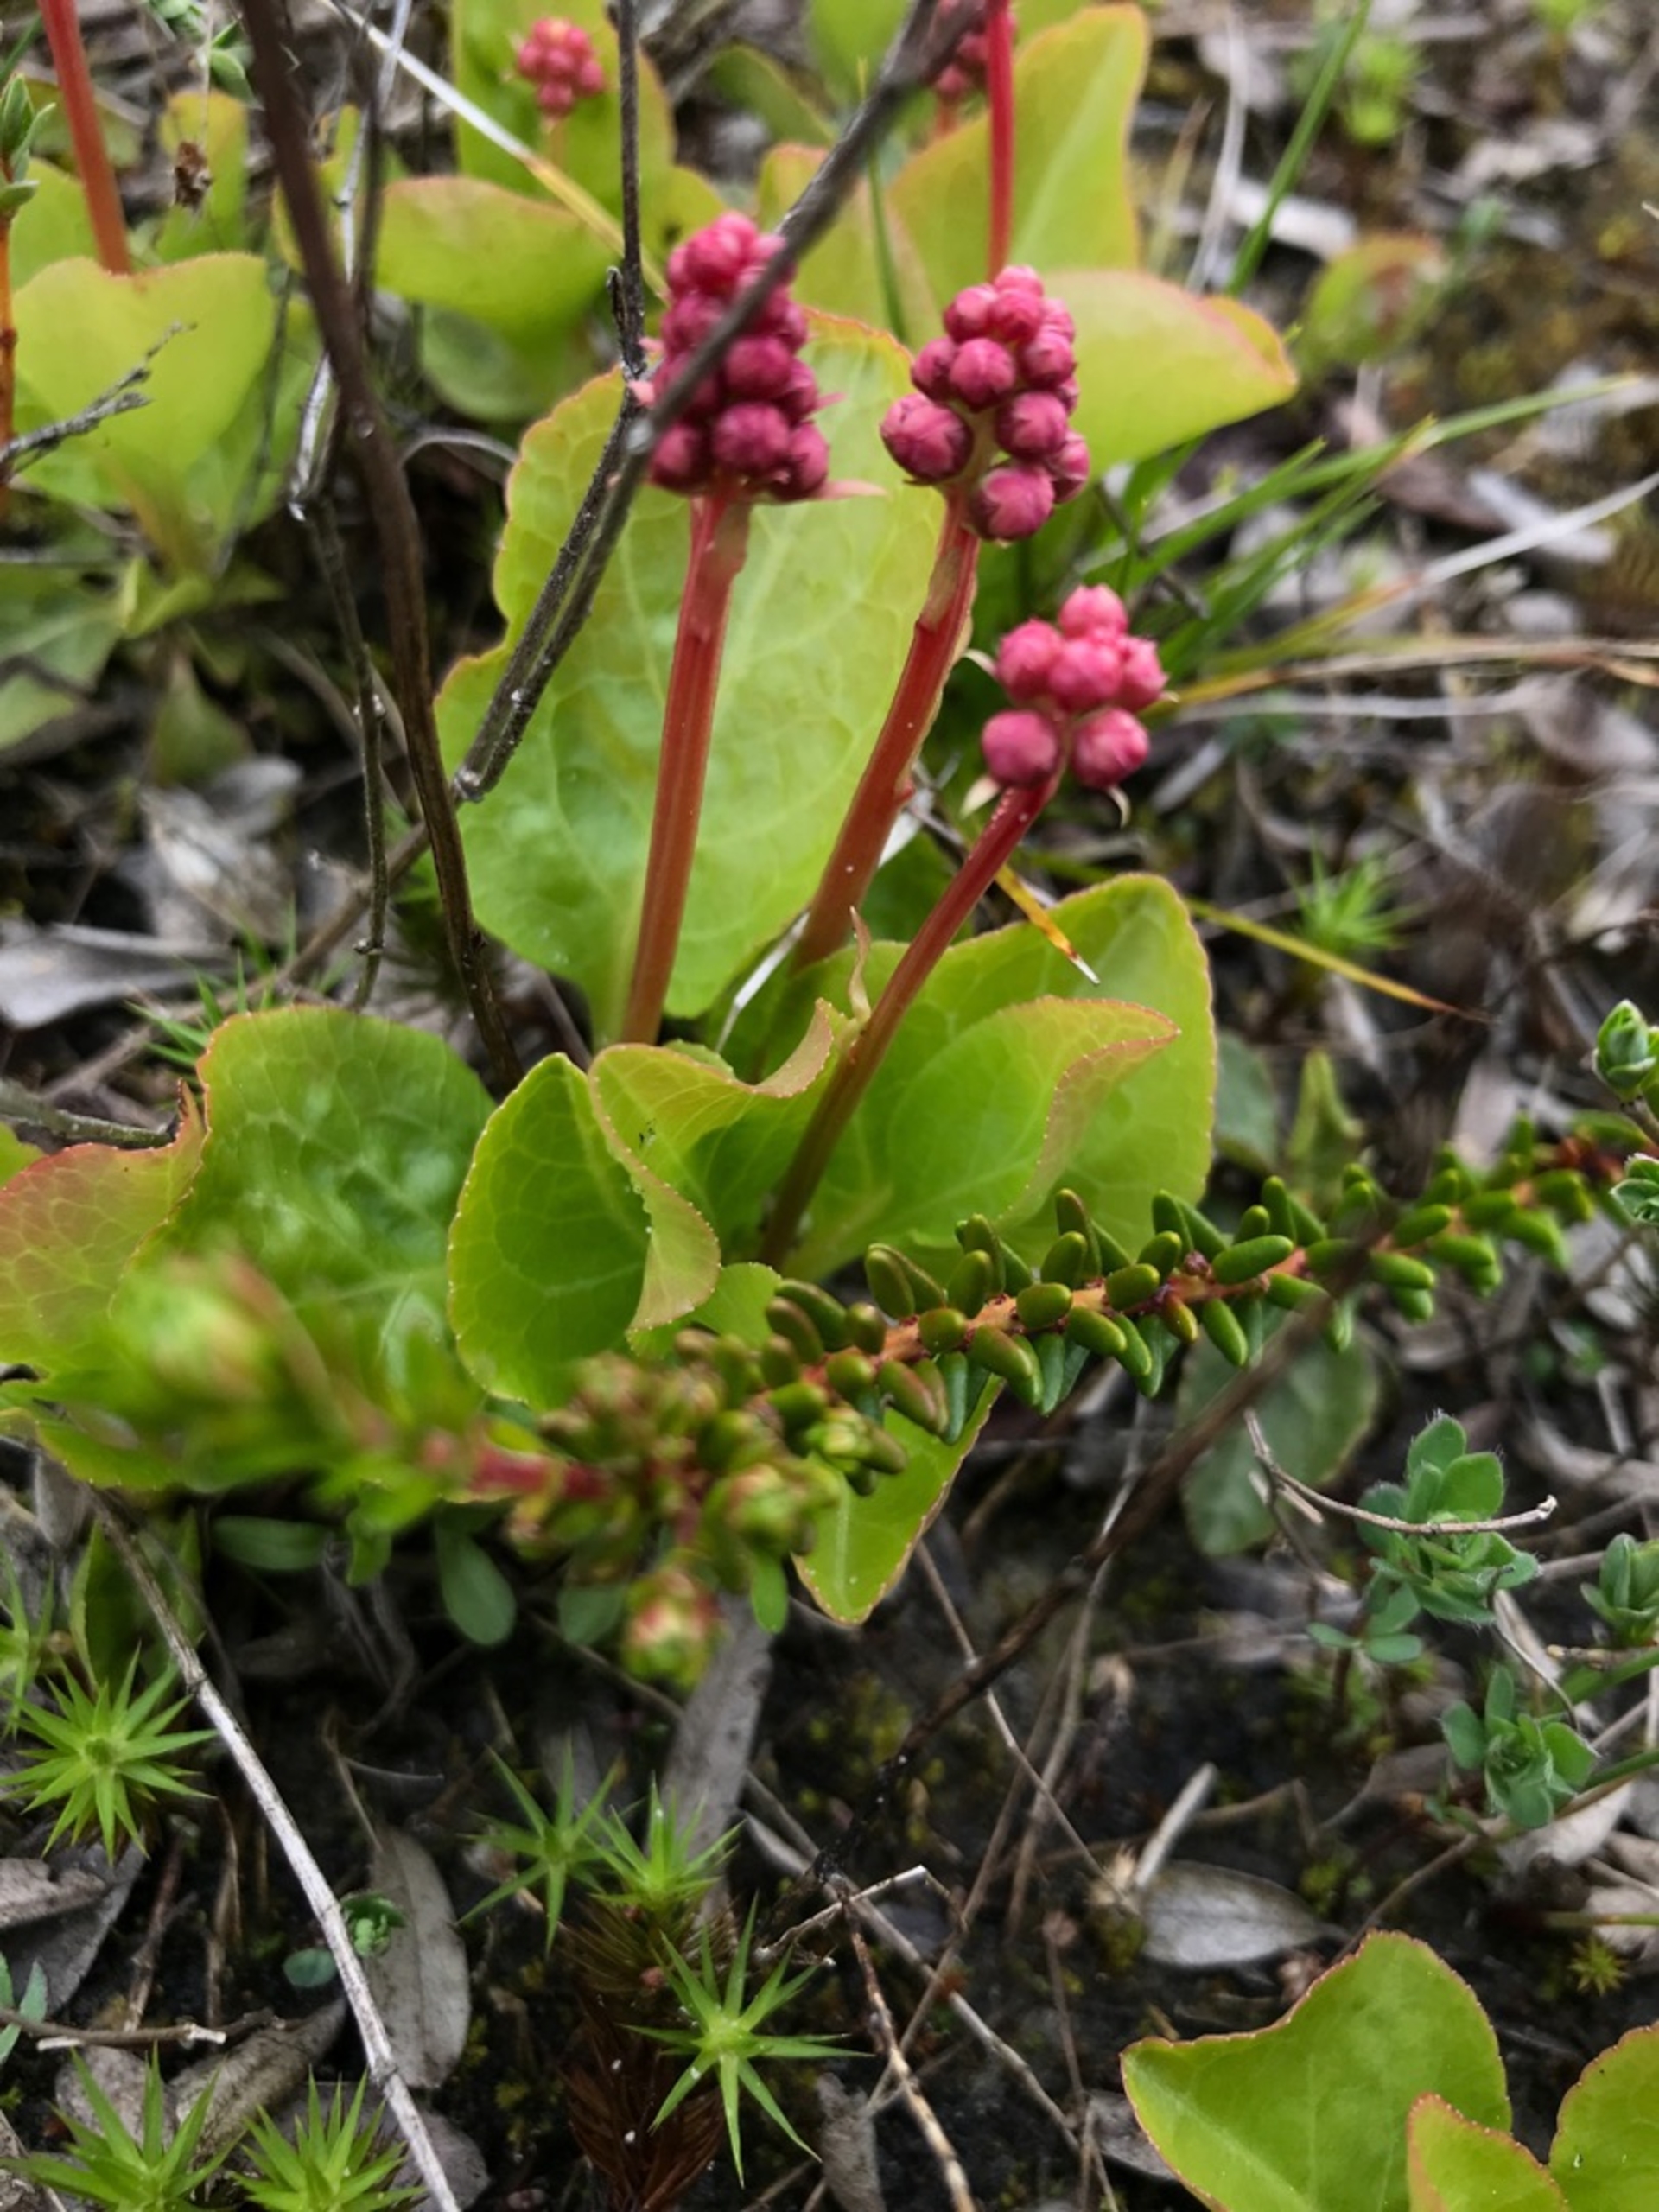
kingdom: Plantae
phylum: Tracheophyta
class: Magnoliopsida
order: Ericales
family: Ericaceae
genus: Pyrola
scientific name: Pyrola minor
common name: Liden vintergrøn
